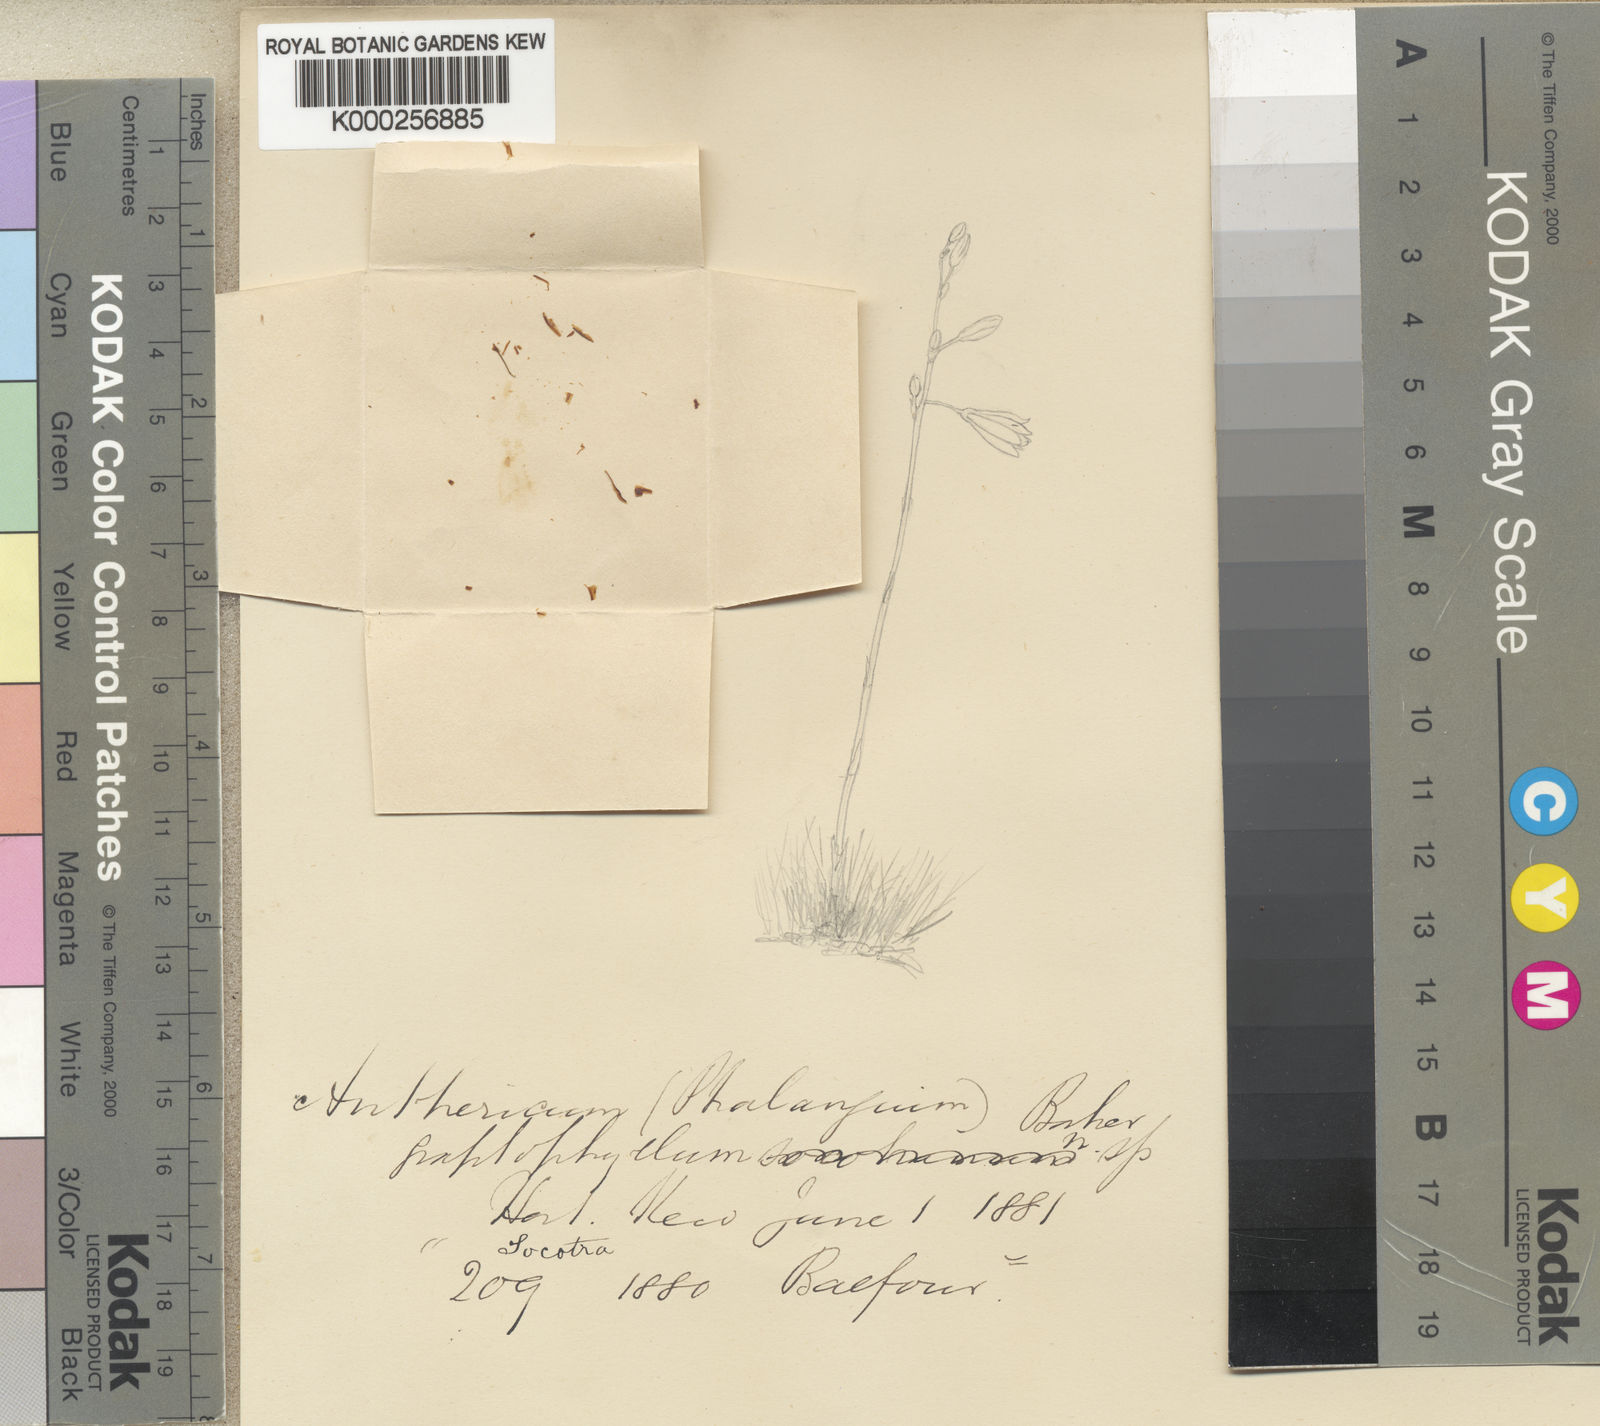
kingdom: Plantae
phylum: Tracheophyta
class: Liliopsida
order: Asparagales
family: Asparagaceae
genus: Chlorophytum
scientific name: Chlorophytum graptophyllum
